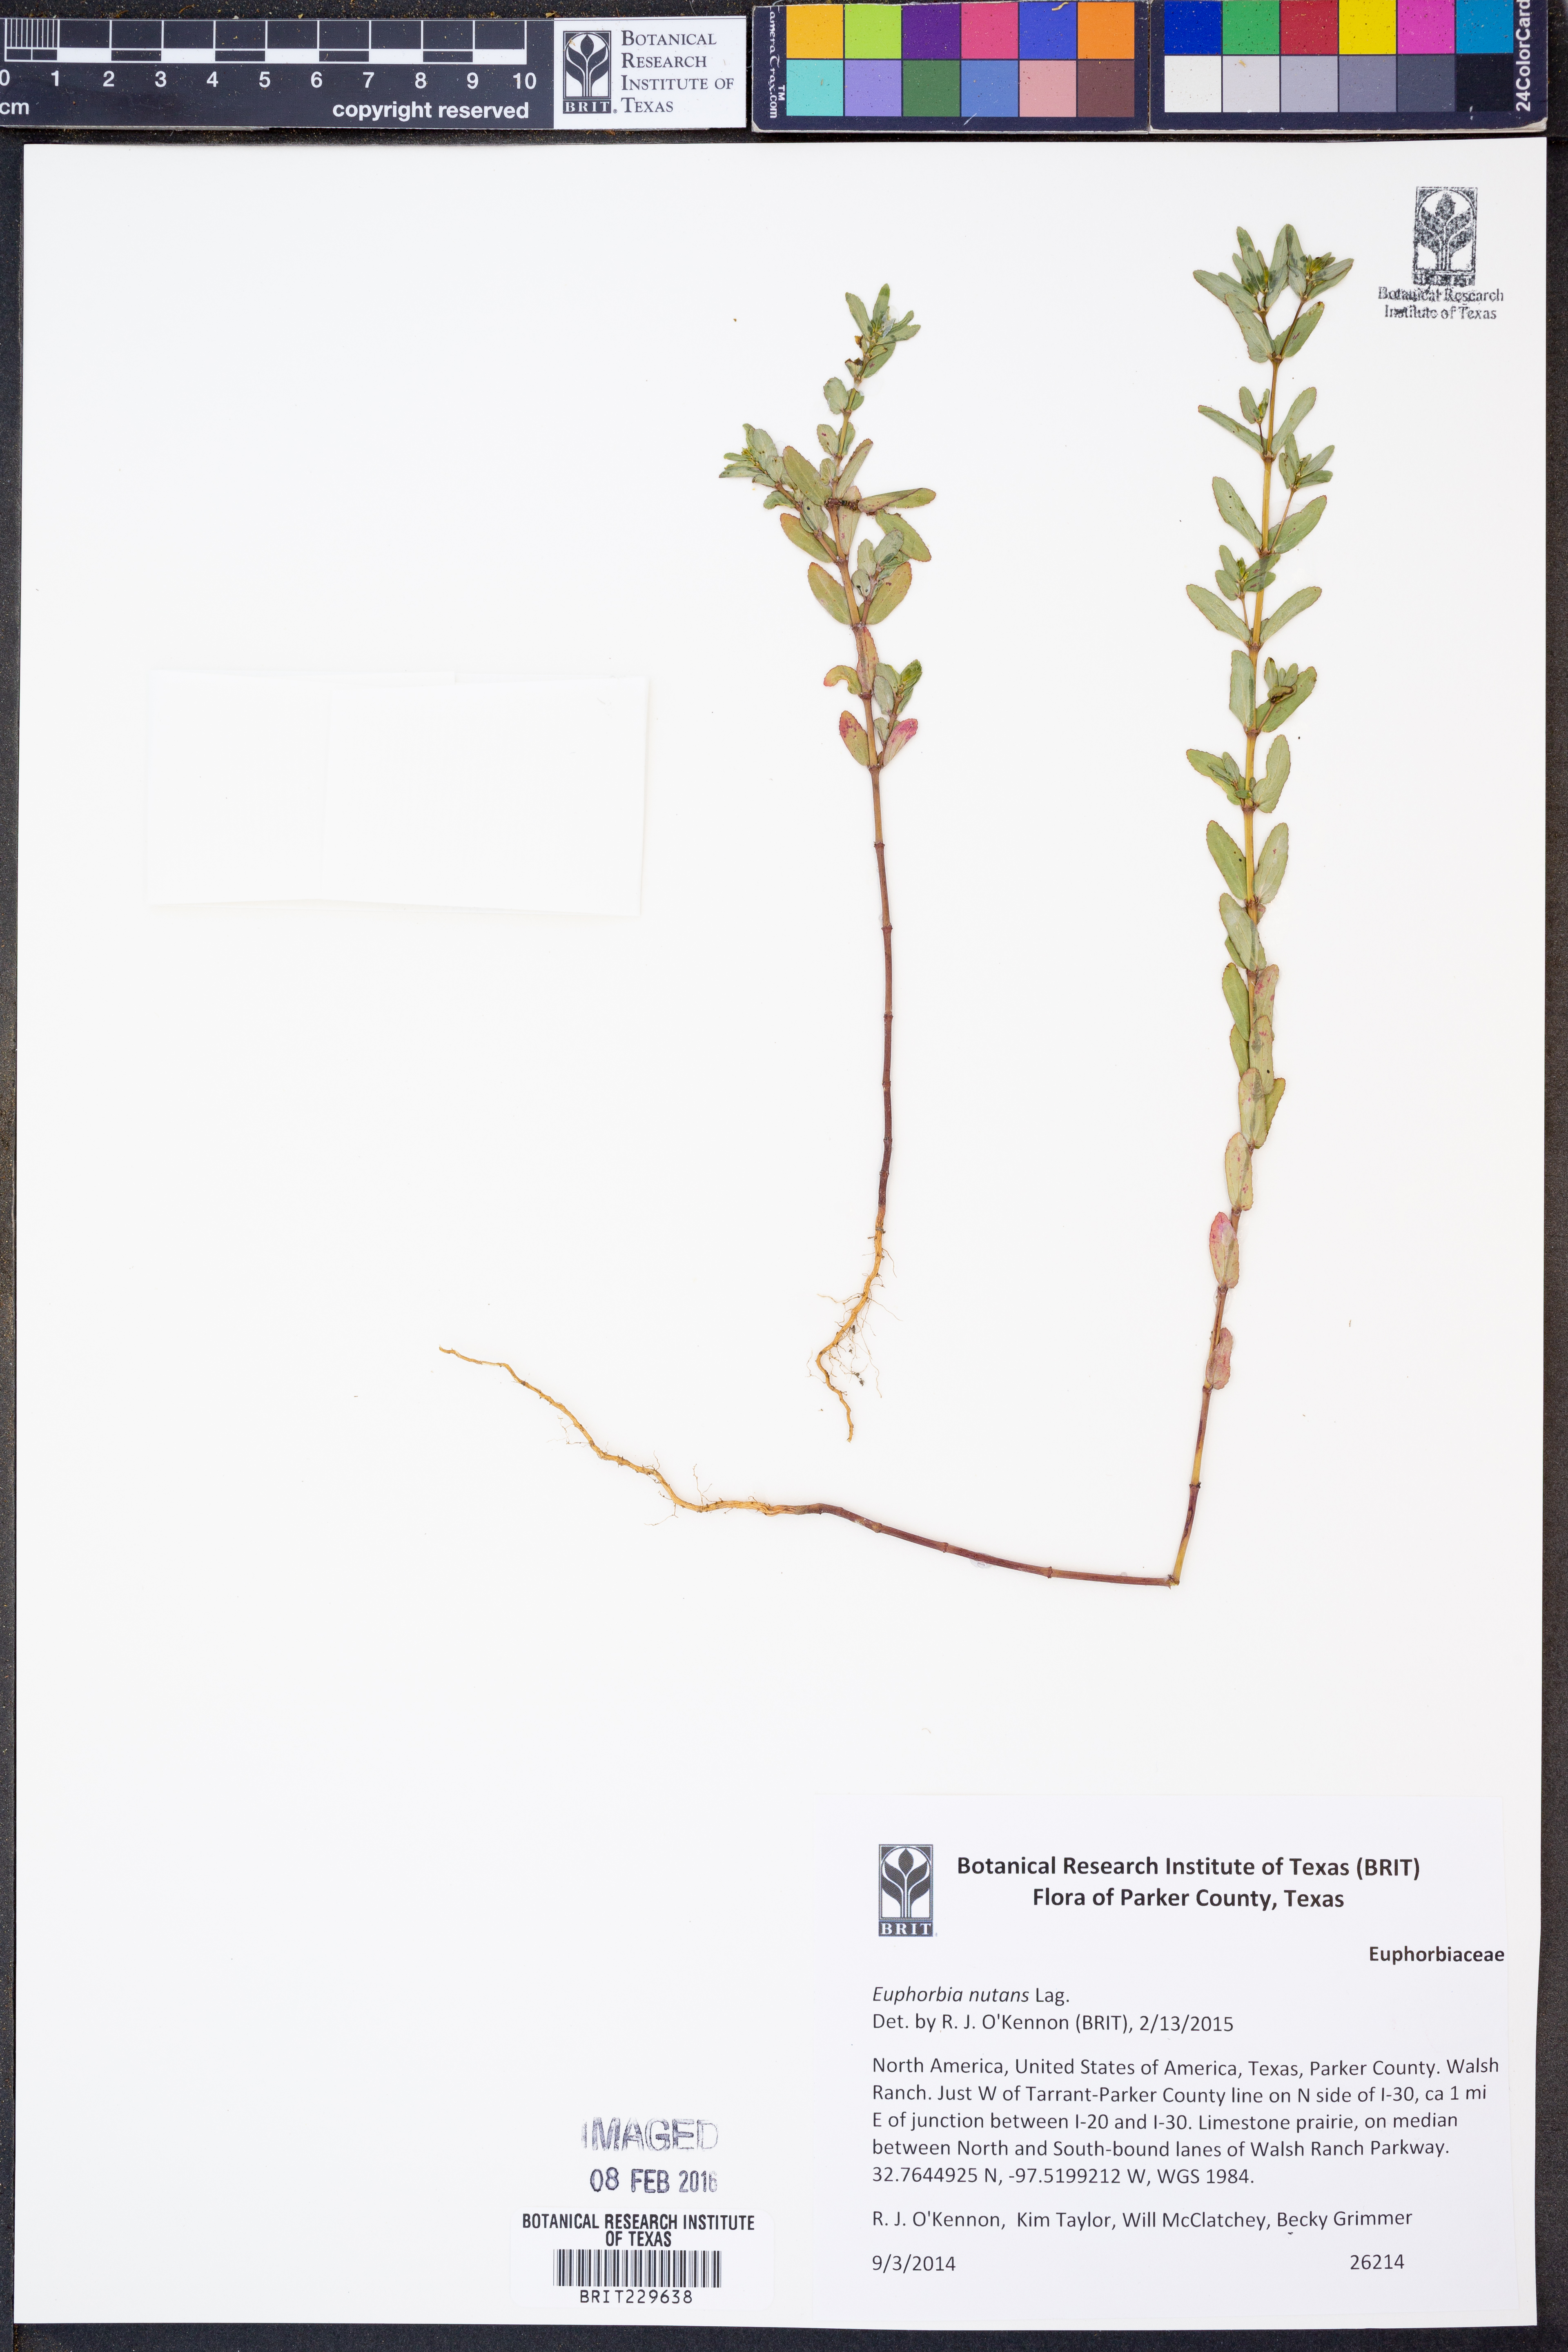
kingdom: Plantae
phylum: Tracheophyta
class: Magnoliopsida
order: Malpighiales
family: Euphorbiaceae
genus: Euphorbia
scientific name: Euphorbia nutans
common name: Eyebane
